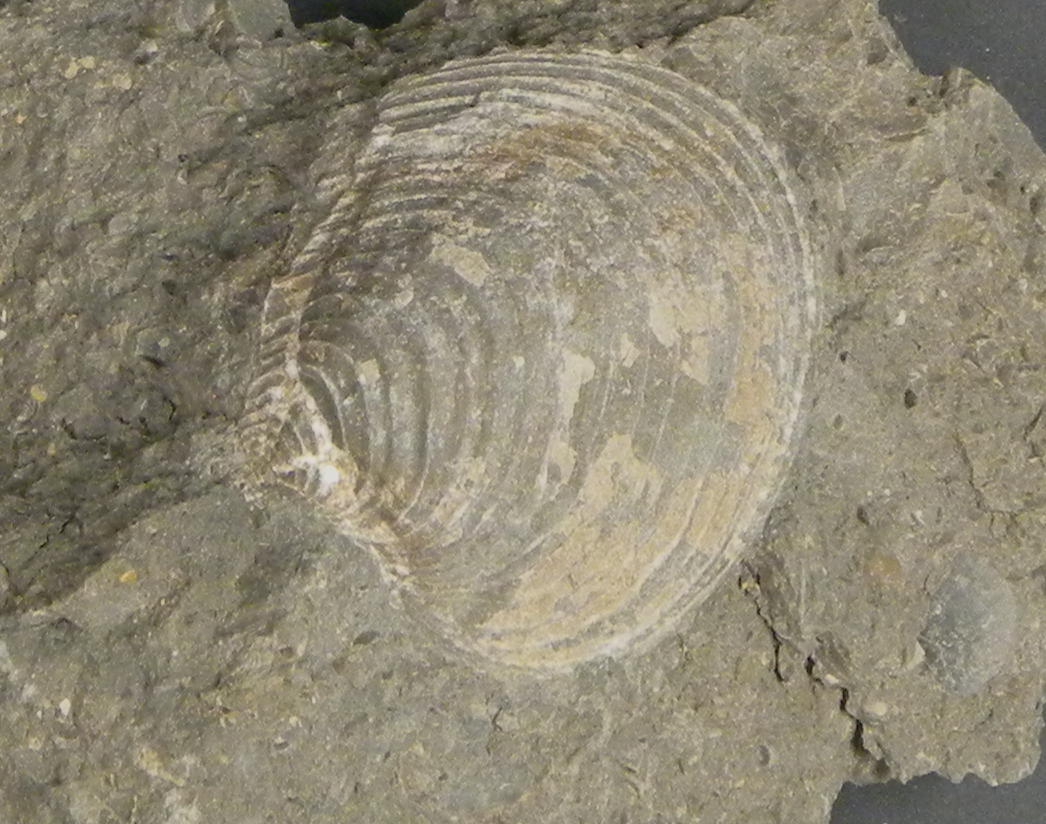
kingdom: Animalia
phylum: Mollusca
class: Bivalvia
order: Carditida
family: Astartidae
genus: Astarte
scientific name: Astarte
